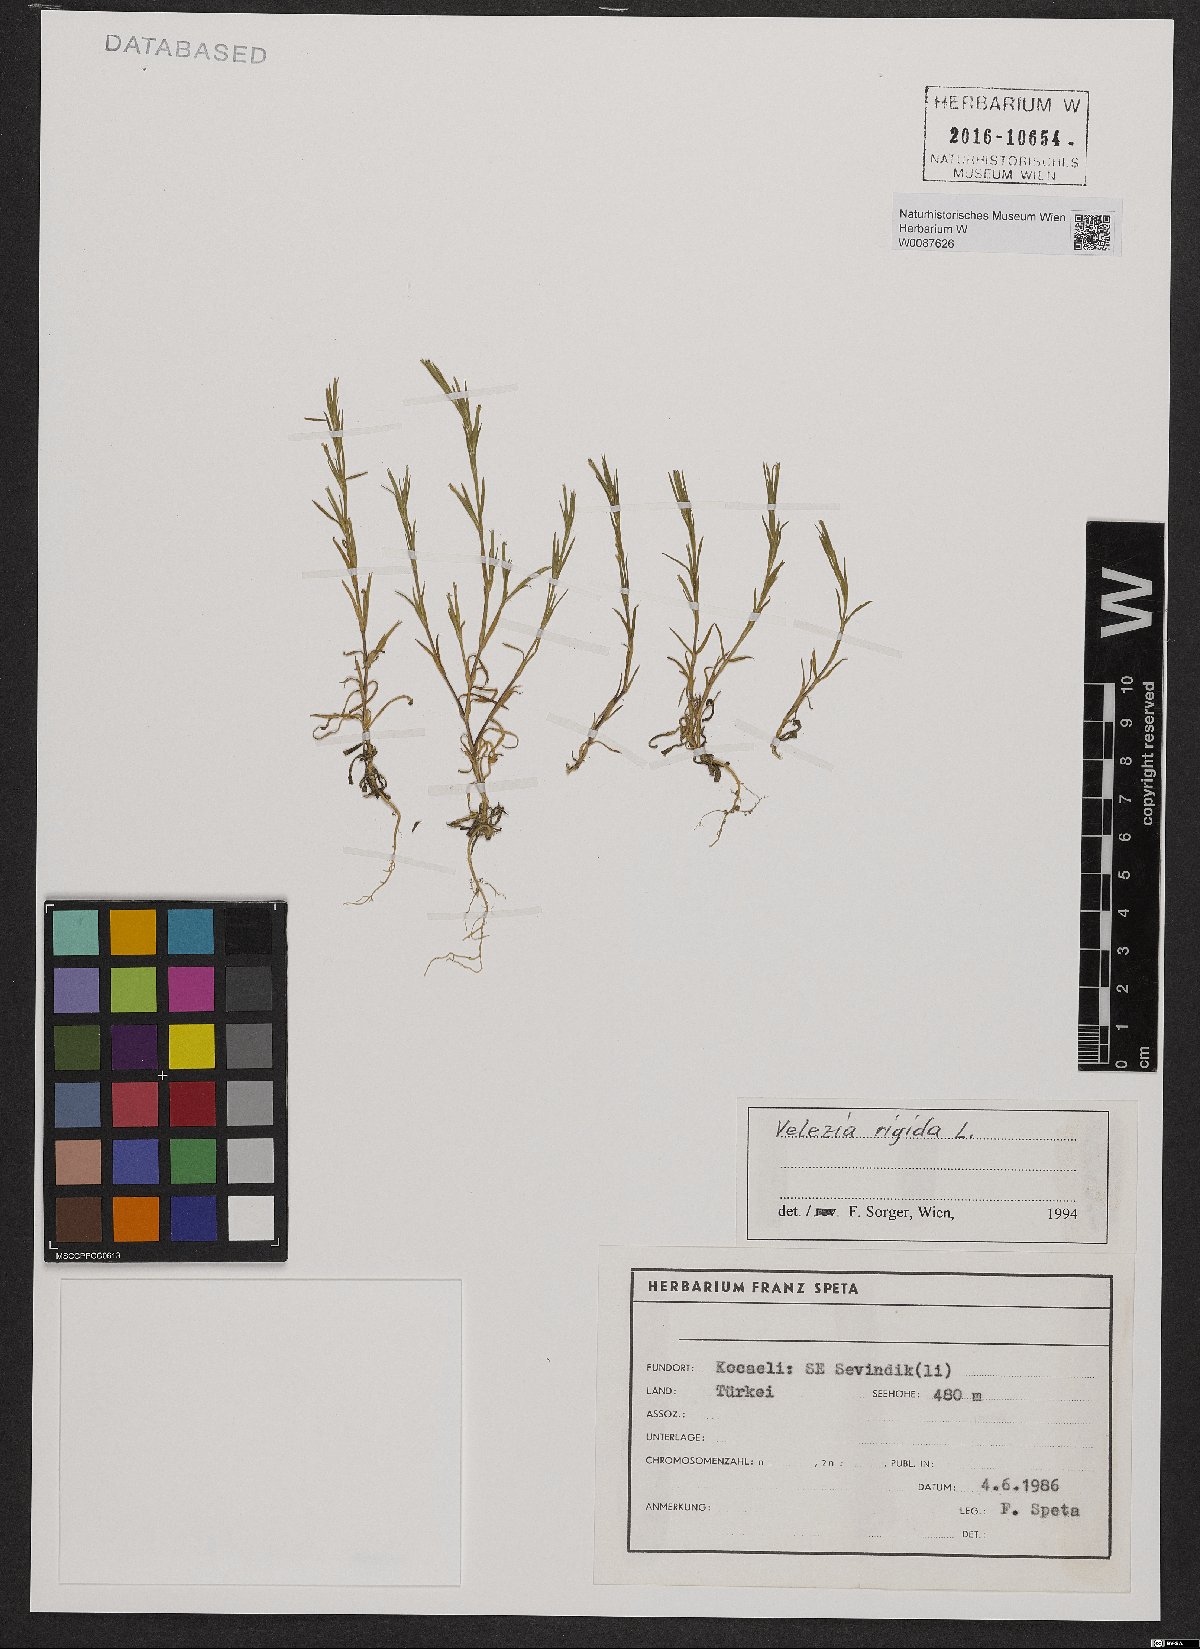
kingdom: Plantae
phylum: Tracheophyta
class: Magnoliopsida
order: Caryophyllales
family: Caryophyllaceae
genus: Dianthus
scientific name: Dianthus nudiflorus
